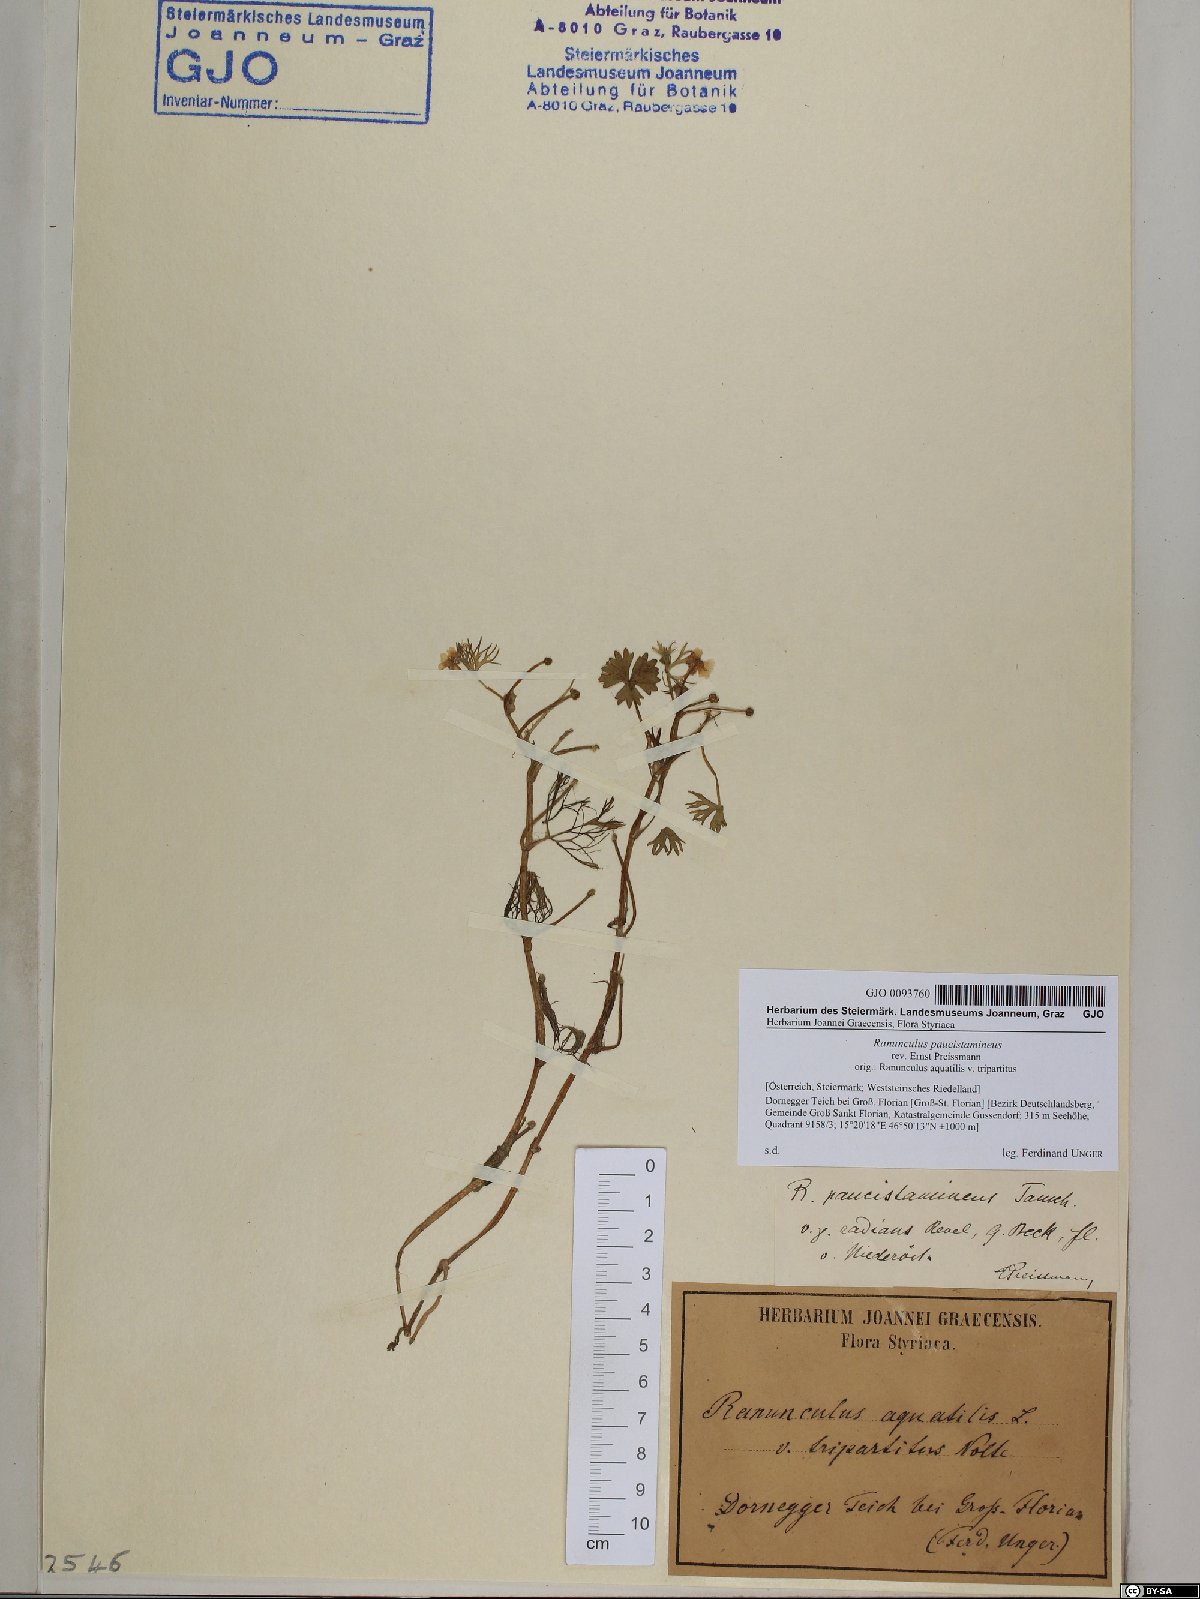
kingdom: Plantae
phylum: Tracheophyta
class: Magnoliopsida
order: Ranunculales
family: Ranunculaceae
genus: Ranunculus
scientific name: Ranunculus
